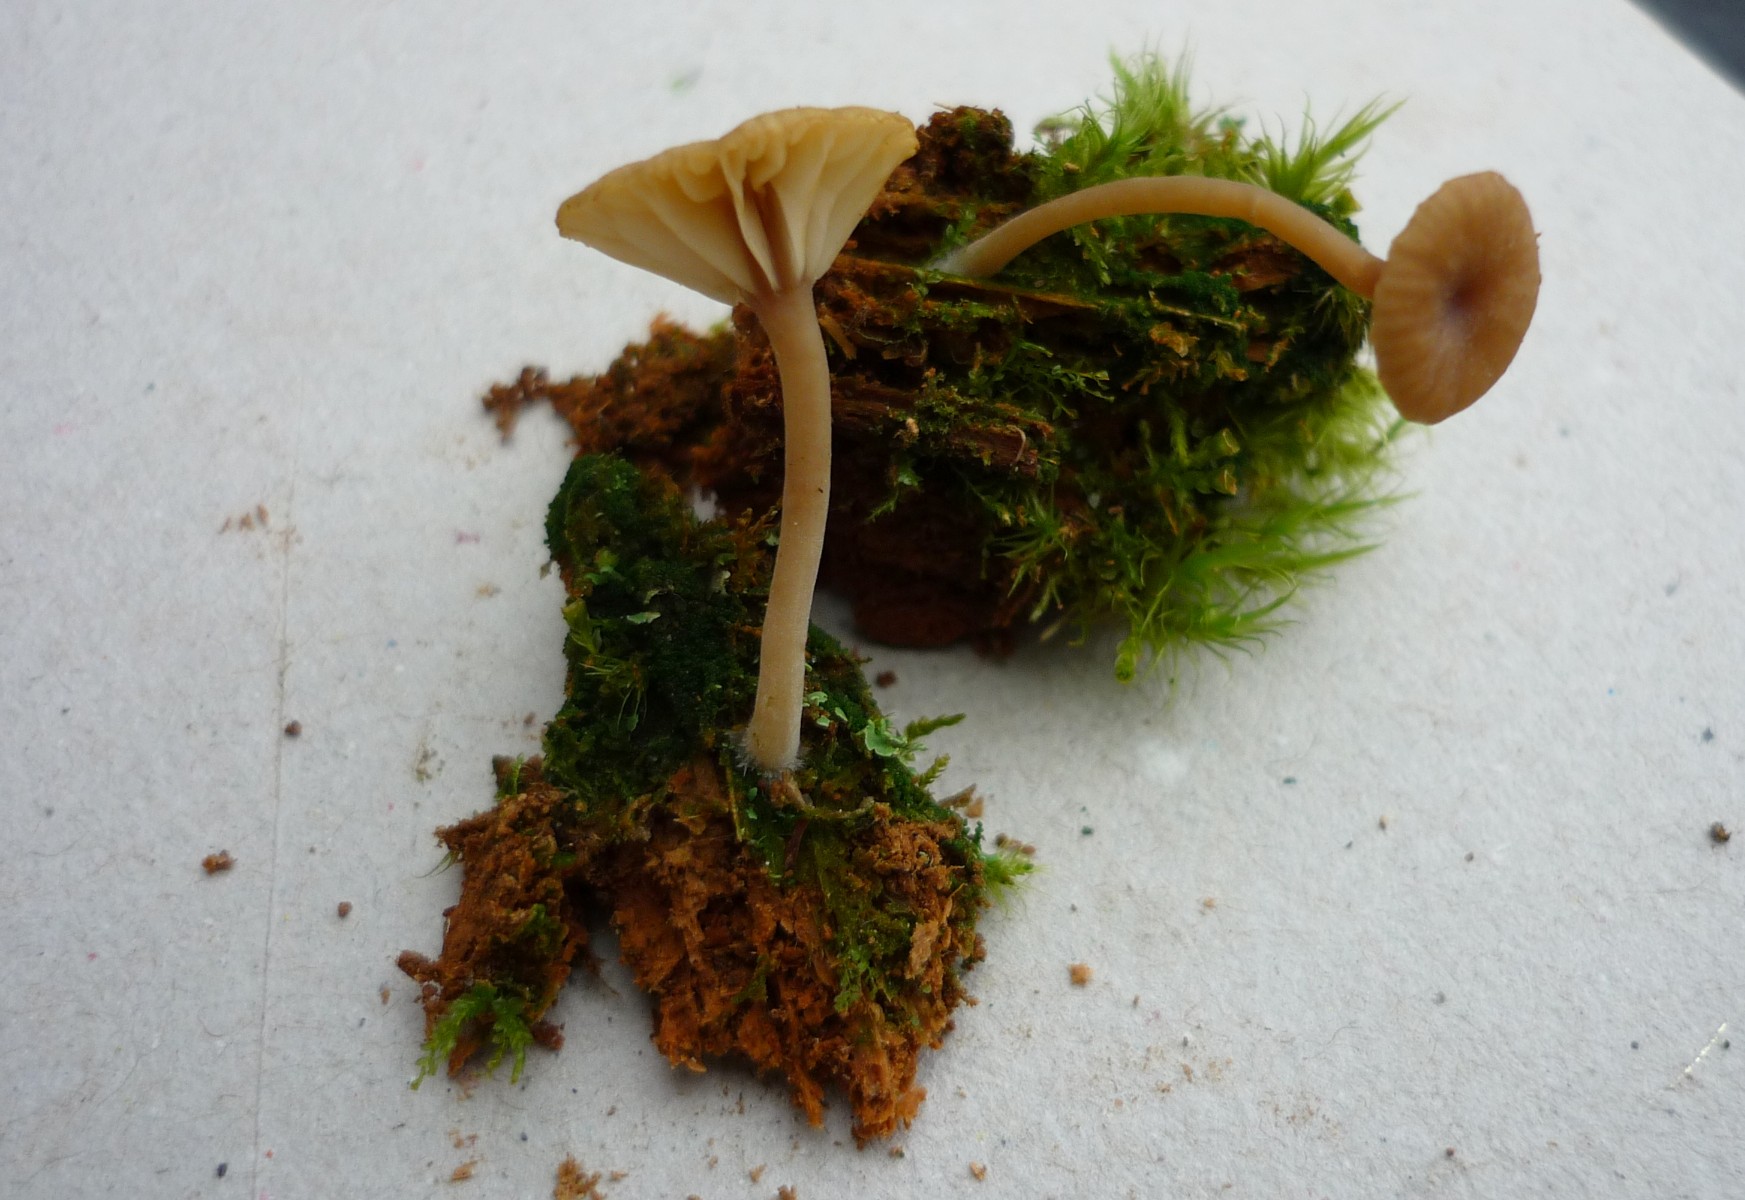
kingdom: Fungi
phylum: Basidiomycota
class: Agaricomycetes
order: Agaricales
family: Hygrophoraceae
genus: Lichenomphalia
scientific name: Lichenomphalia umbellifera
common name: tørve-lavhat
